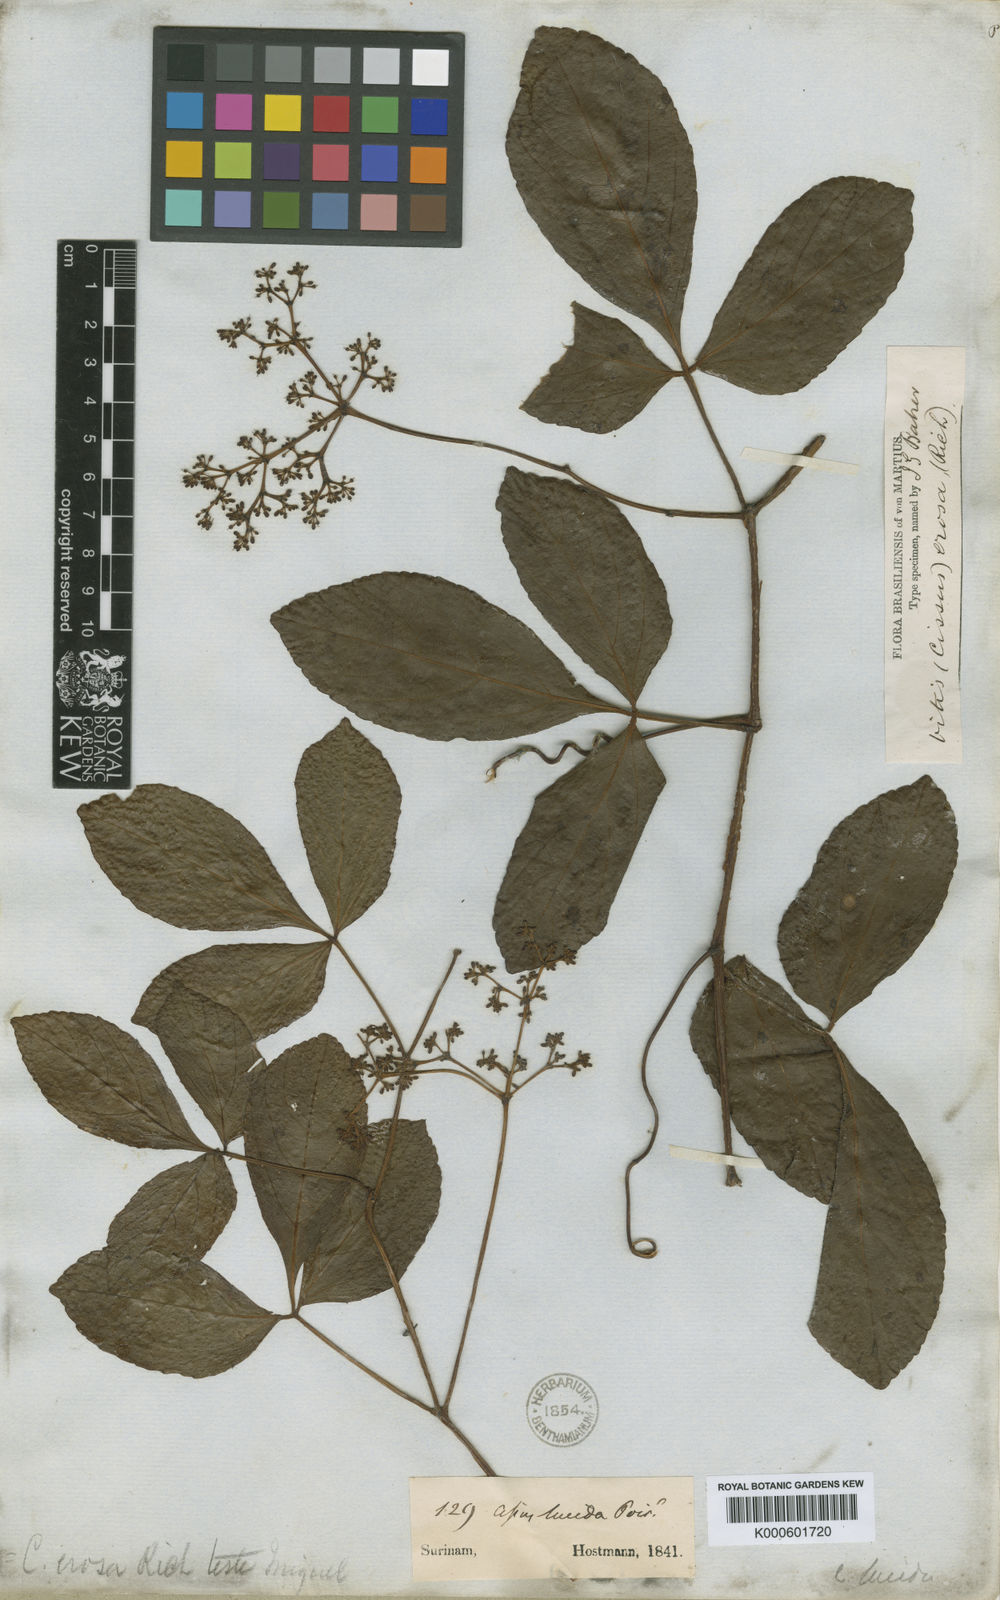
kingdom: Plantae
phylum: Tracheophyta
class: Magnoliopsida
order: Vitales
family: Vitaceae
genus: Cissus
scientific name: Cissus erosa
